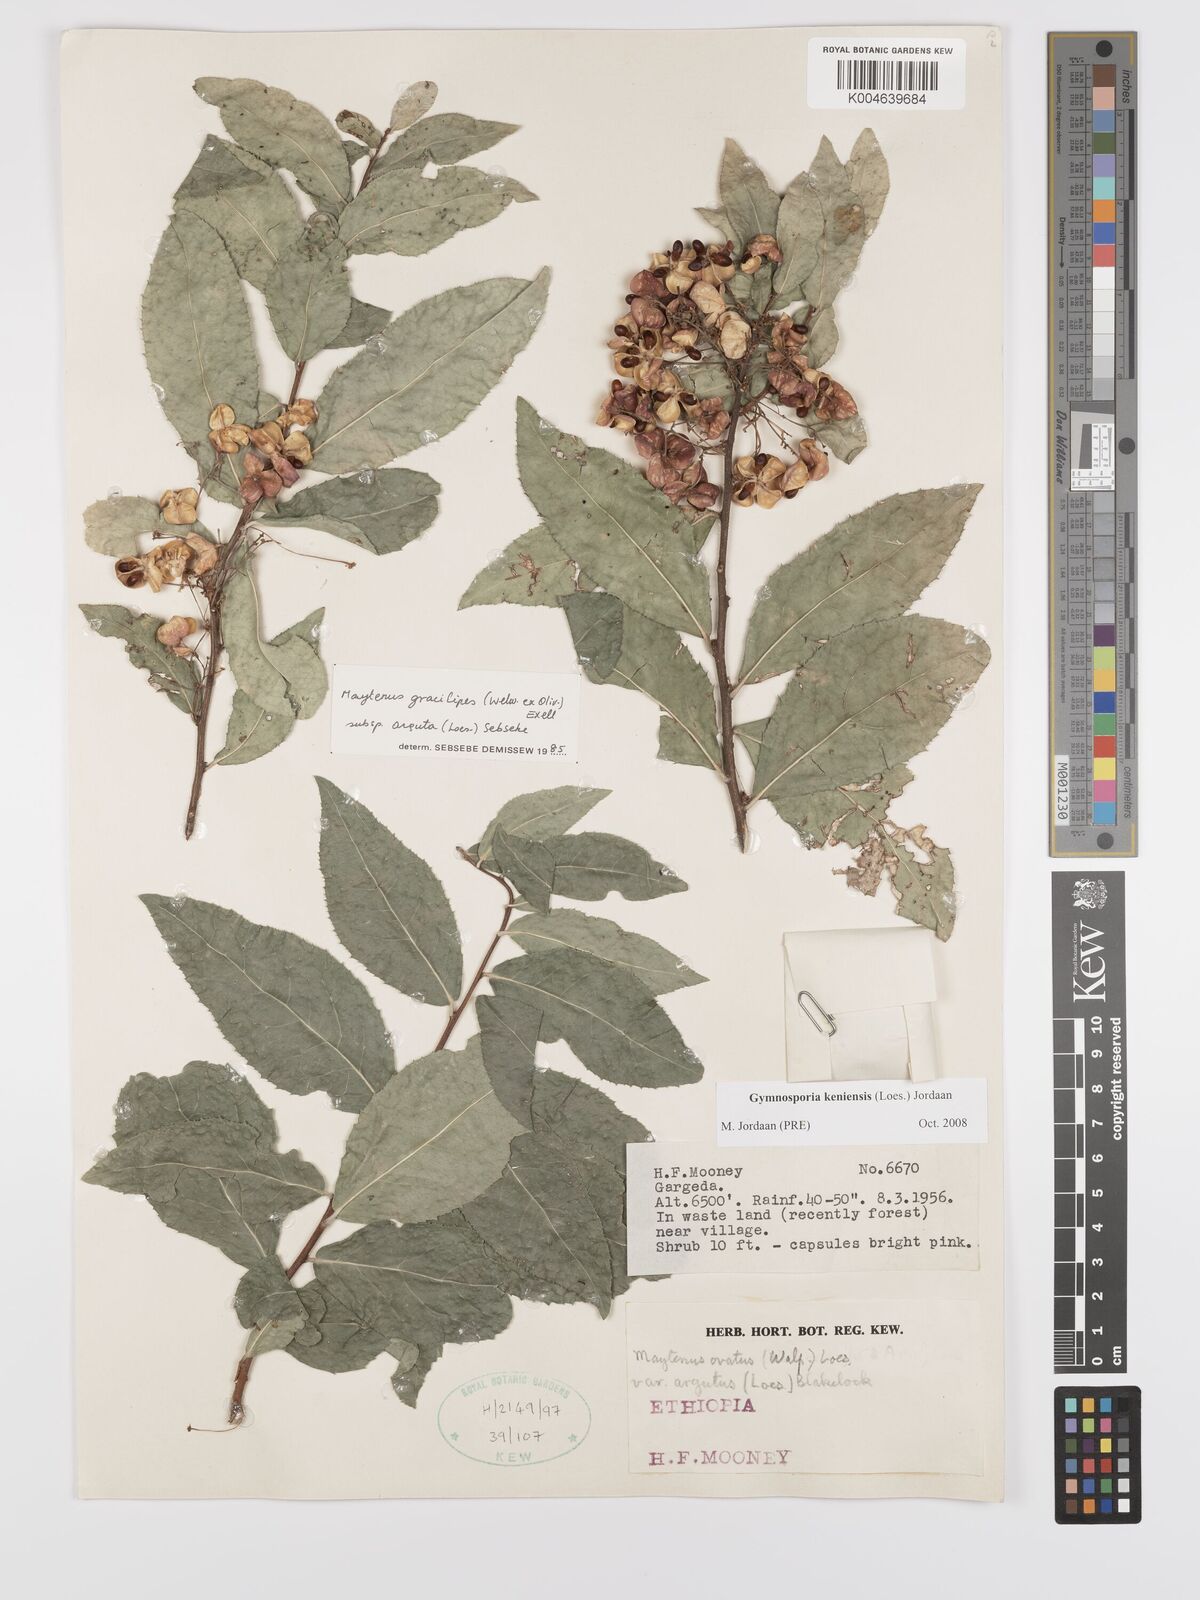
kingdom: Plantae
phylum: Tracheophyta
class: Magnoliopsida
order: Celastrales
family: Celastraceae
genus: Gymnosporia
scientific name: Gymnosporia gracilipes
